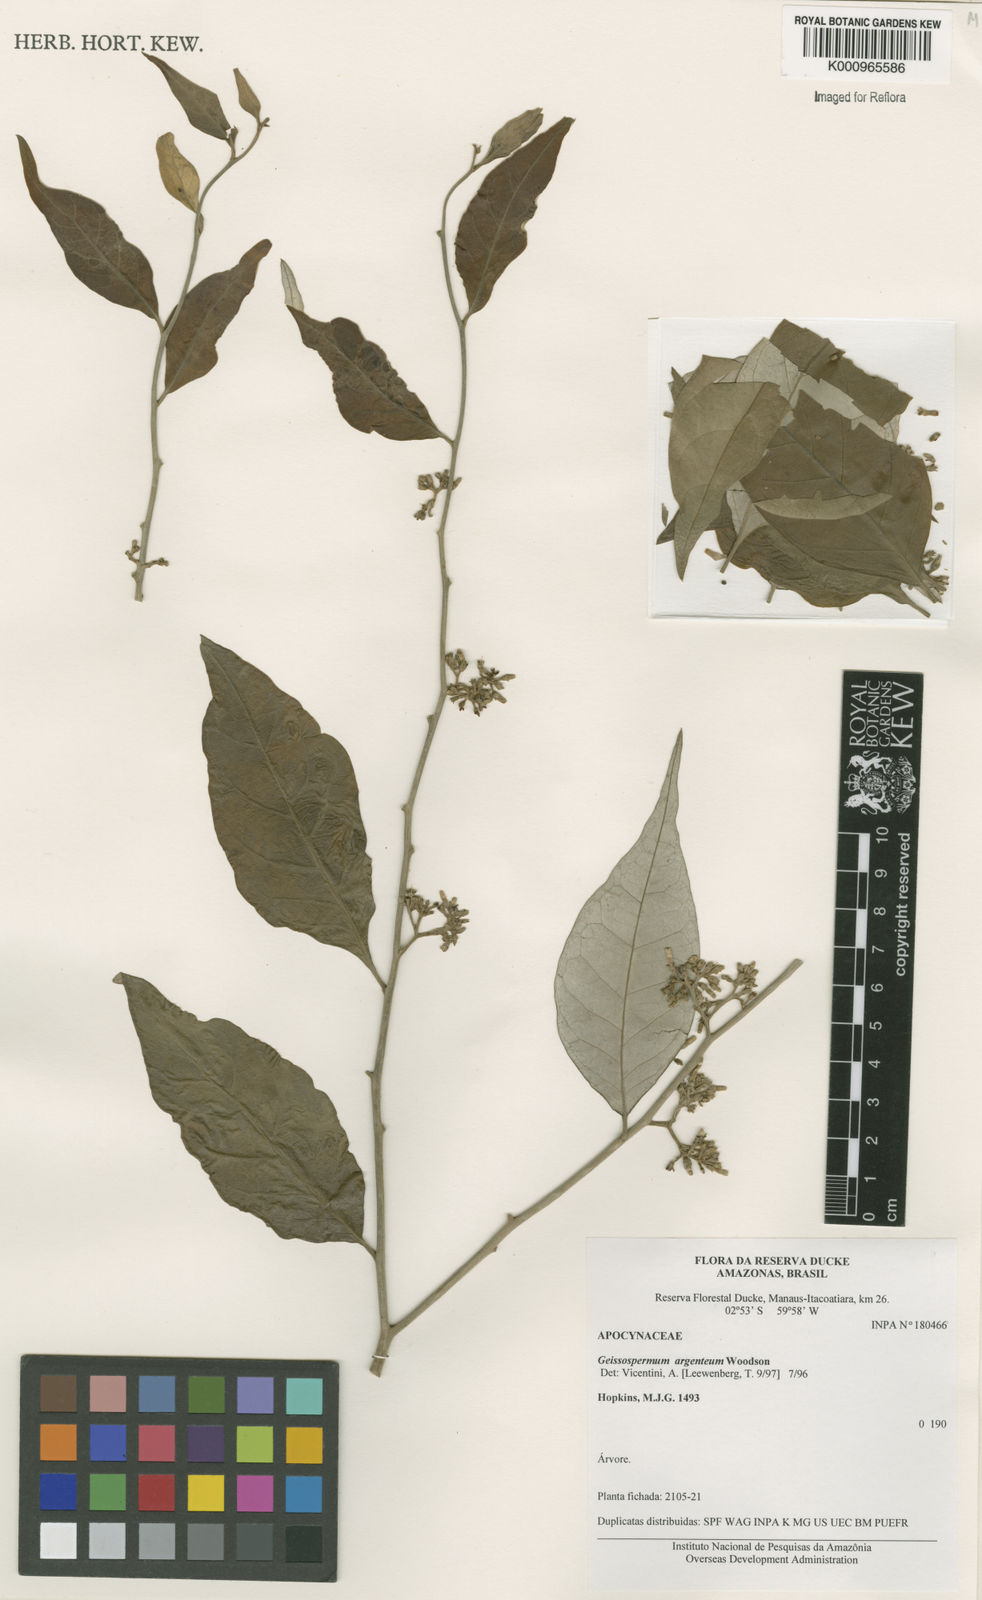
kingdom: Plantae
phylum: Tracheophyta
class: Magnoliopsida
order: Gentianales
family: Apocynaceae
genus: Geissospermum
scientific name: Geissospermum argenteum
